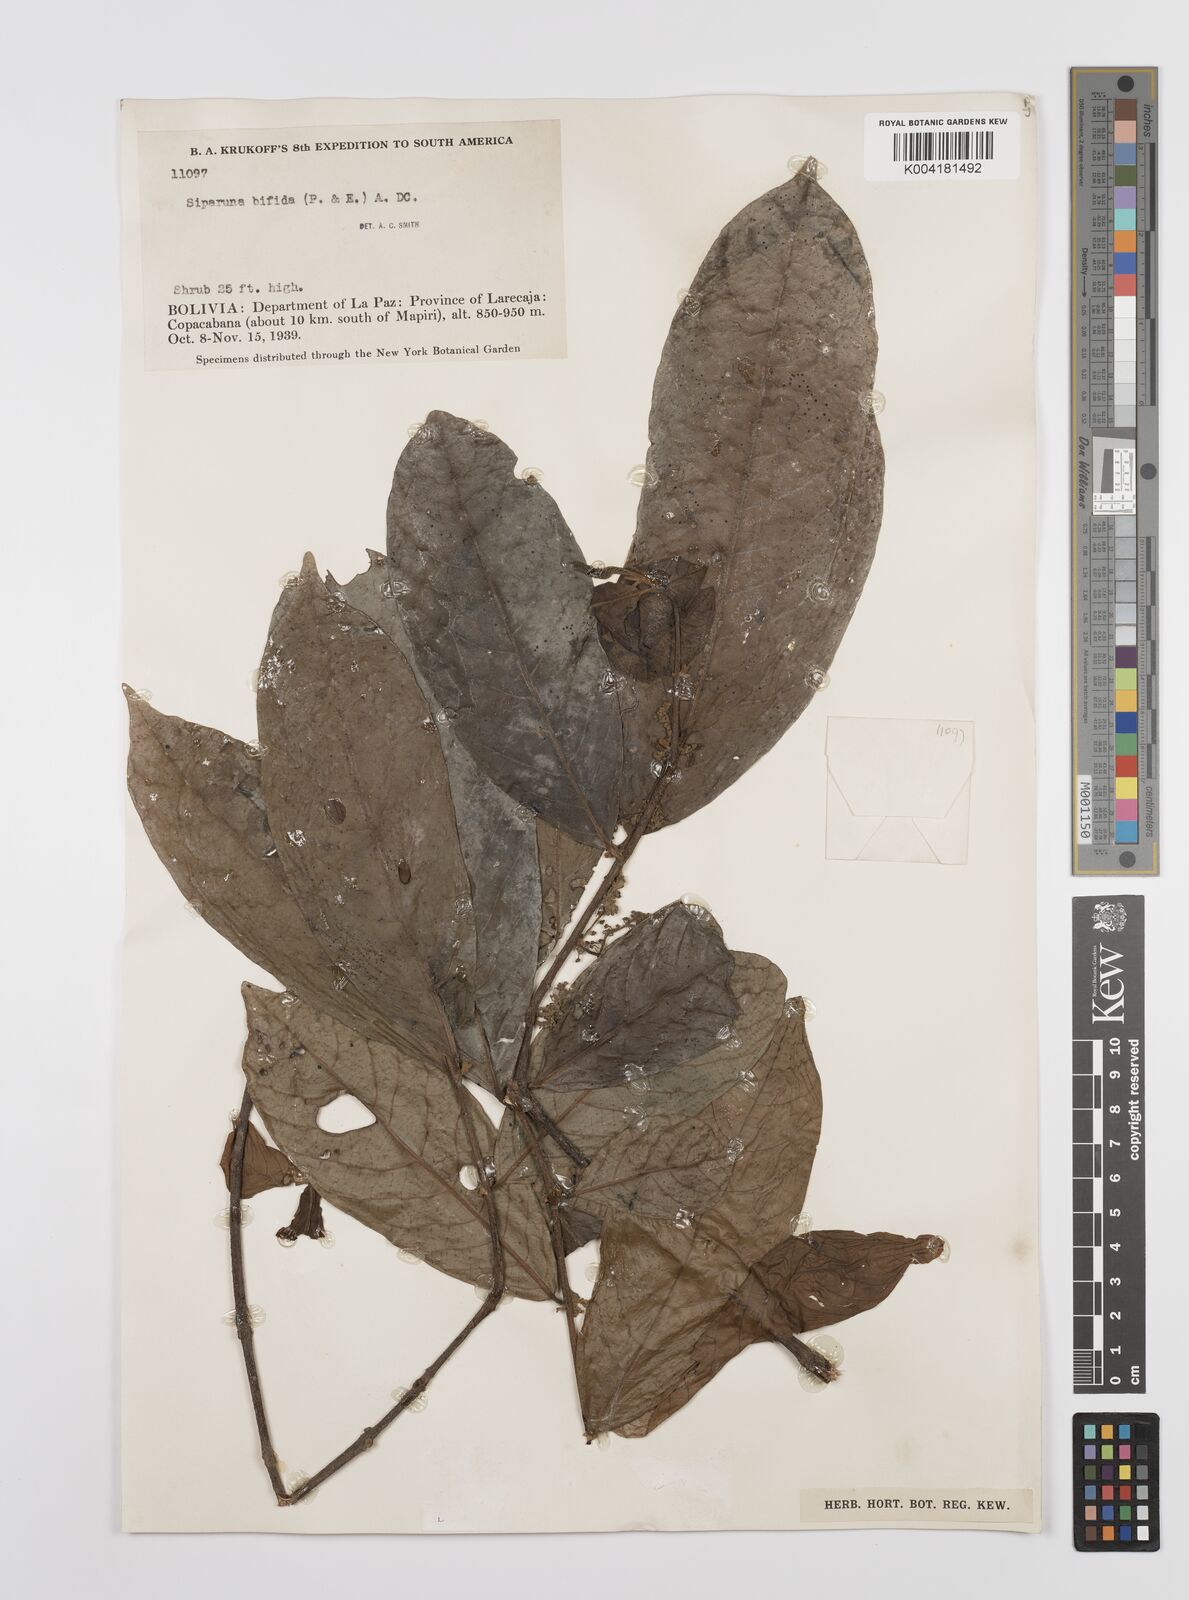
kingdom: Plantae
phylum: Tracheophyta
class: Magnoliopsida
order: Laurales
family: Siparunaceae
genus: Siparuna
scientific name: Siparuna bifida
